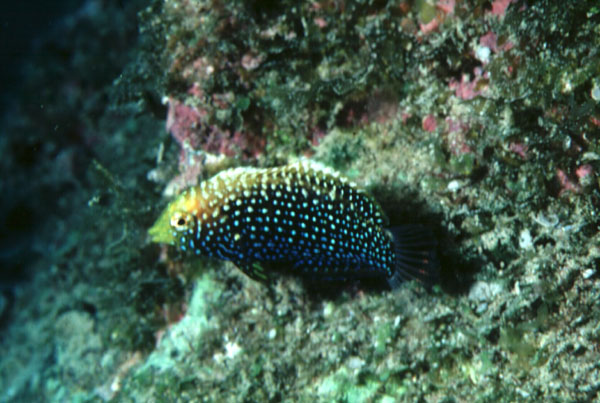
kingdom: Animalia
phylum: Chordata
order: Perciformes
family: Labridae
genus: Macropharyngodon
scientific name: Macropharyngodon cyanoguttatus
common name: Bluespotted wrasse
